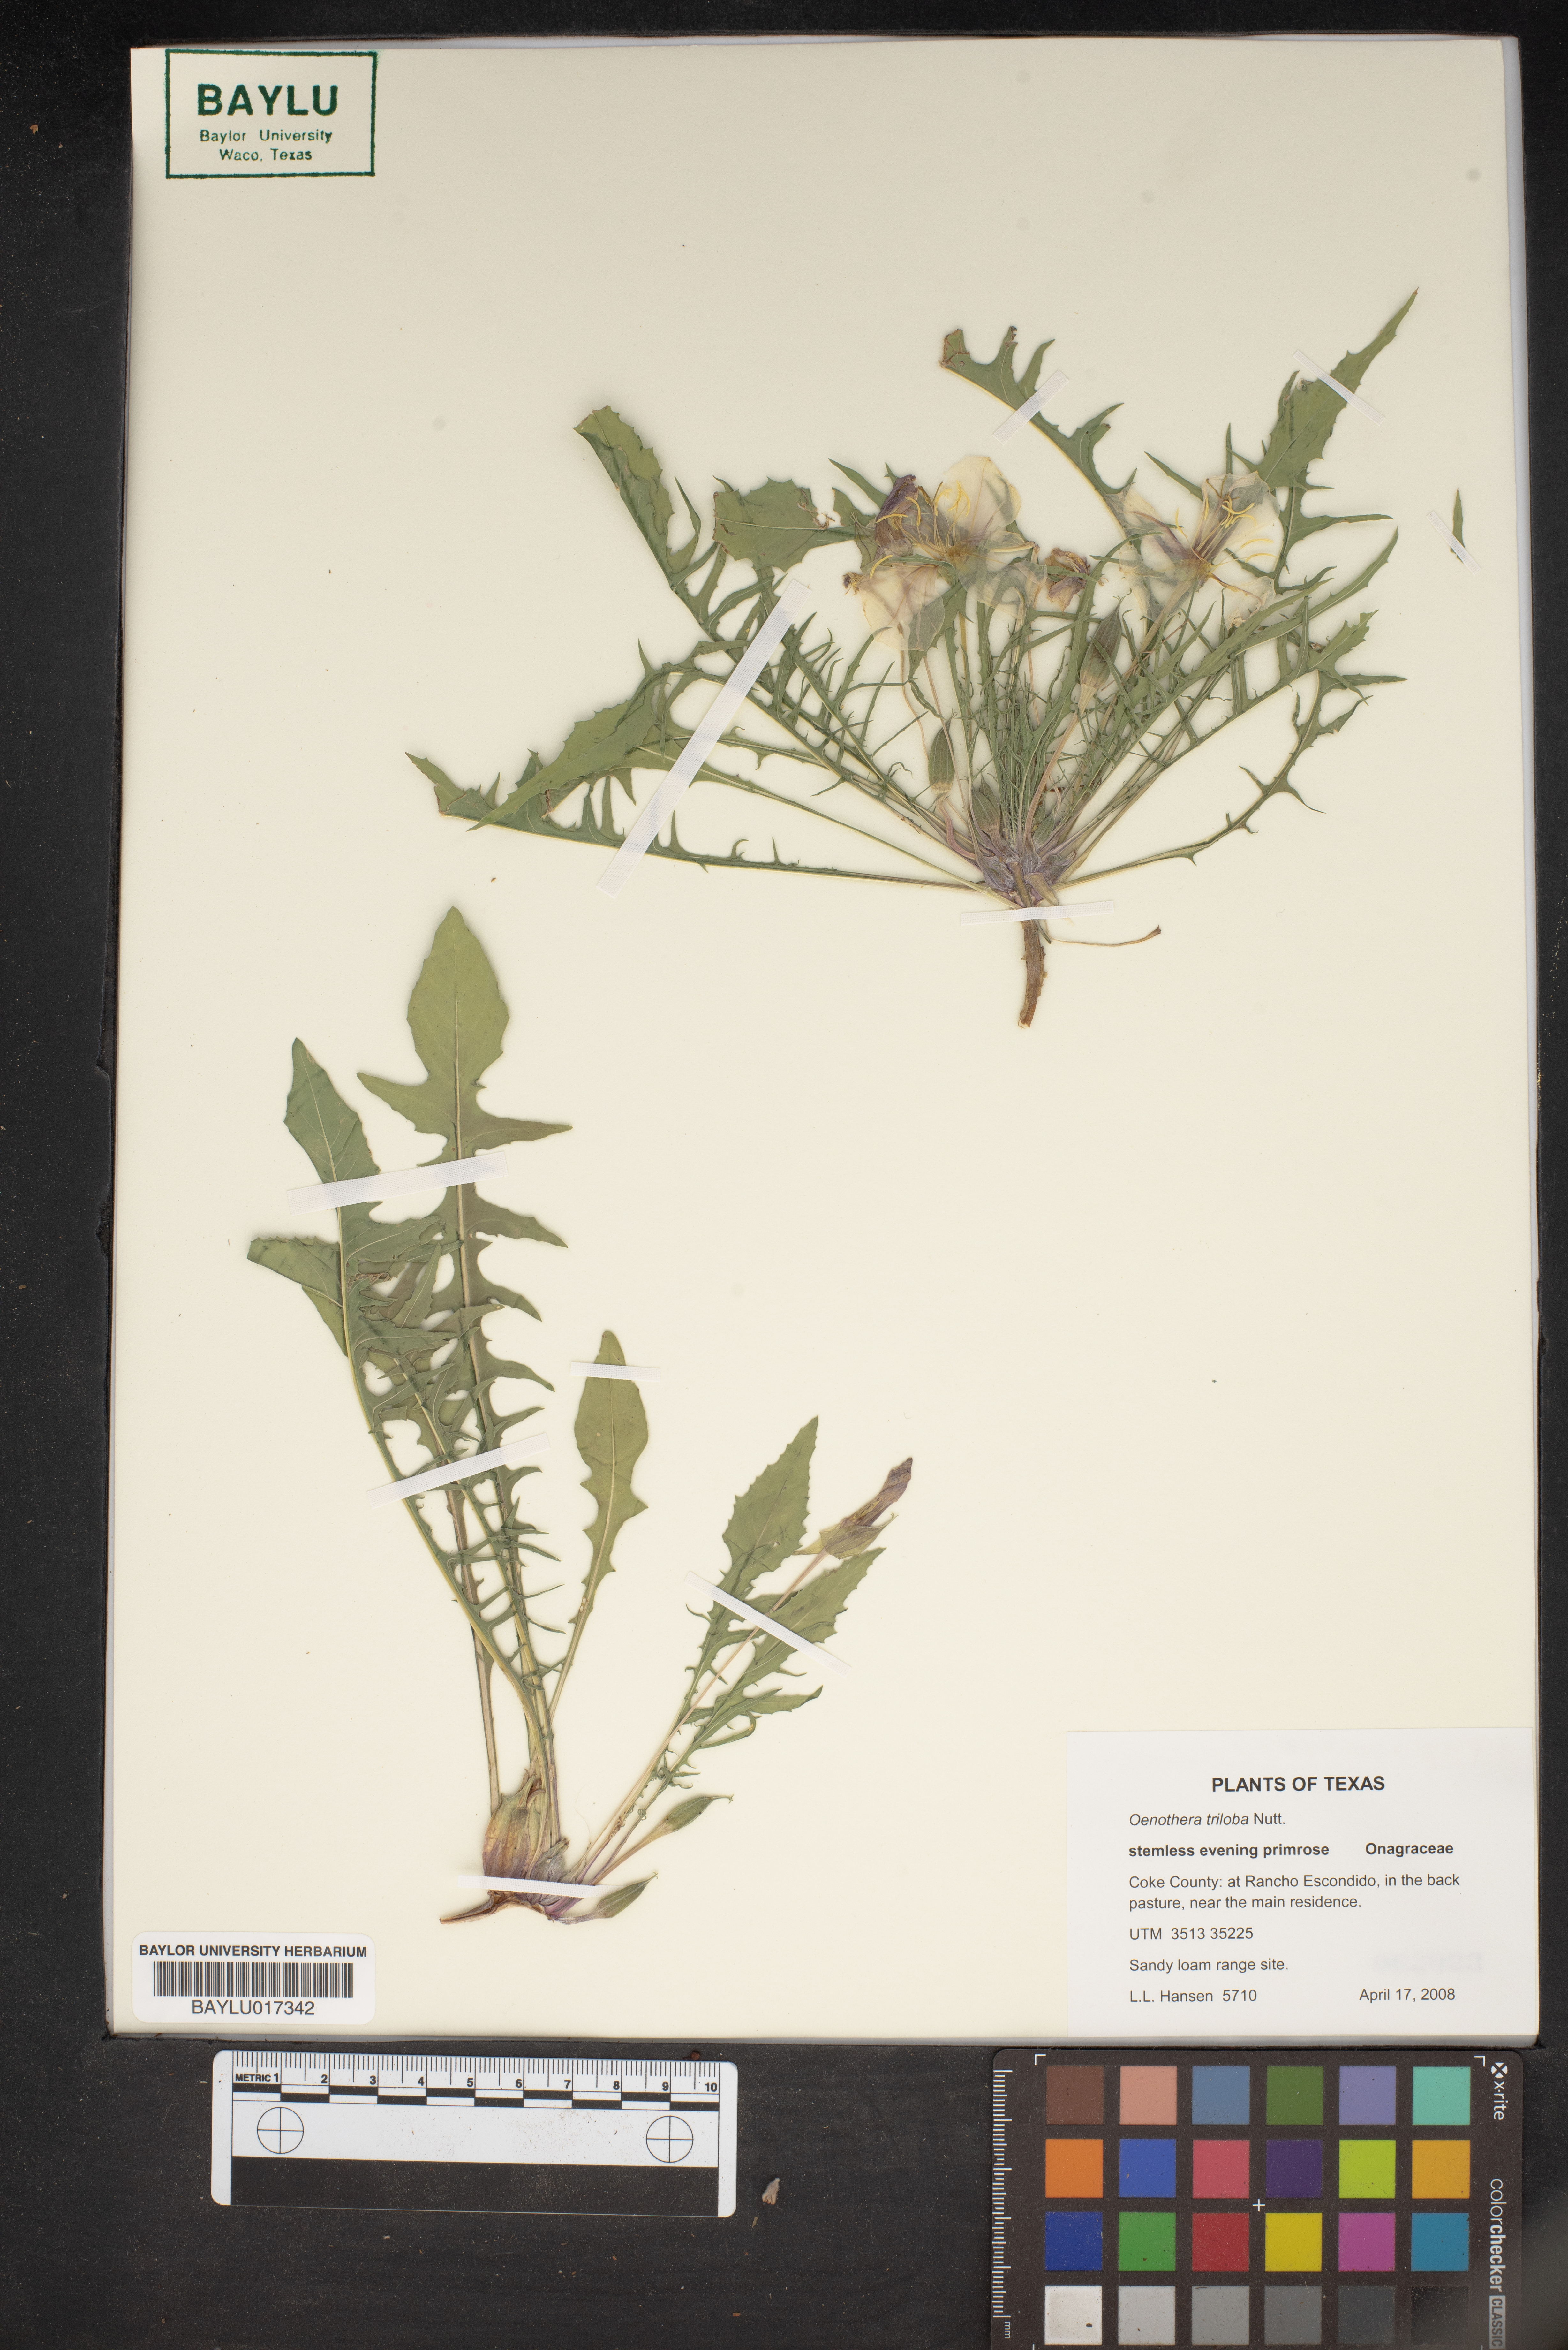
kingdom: Plantae
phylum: Tracheophyta
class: Magnoliopsida
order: Myrtales
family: Onagraceae
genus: Oenothera
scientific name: Oenothera triloba
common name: Sessile evening-primrose
